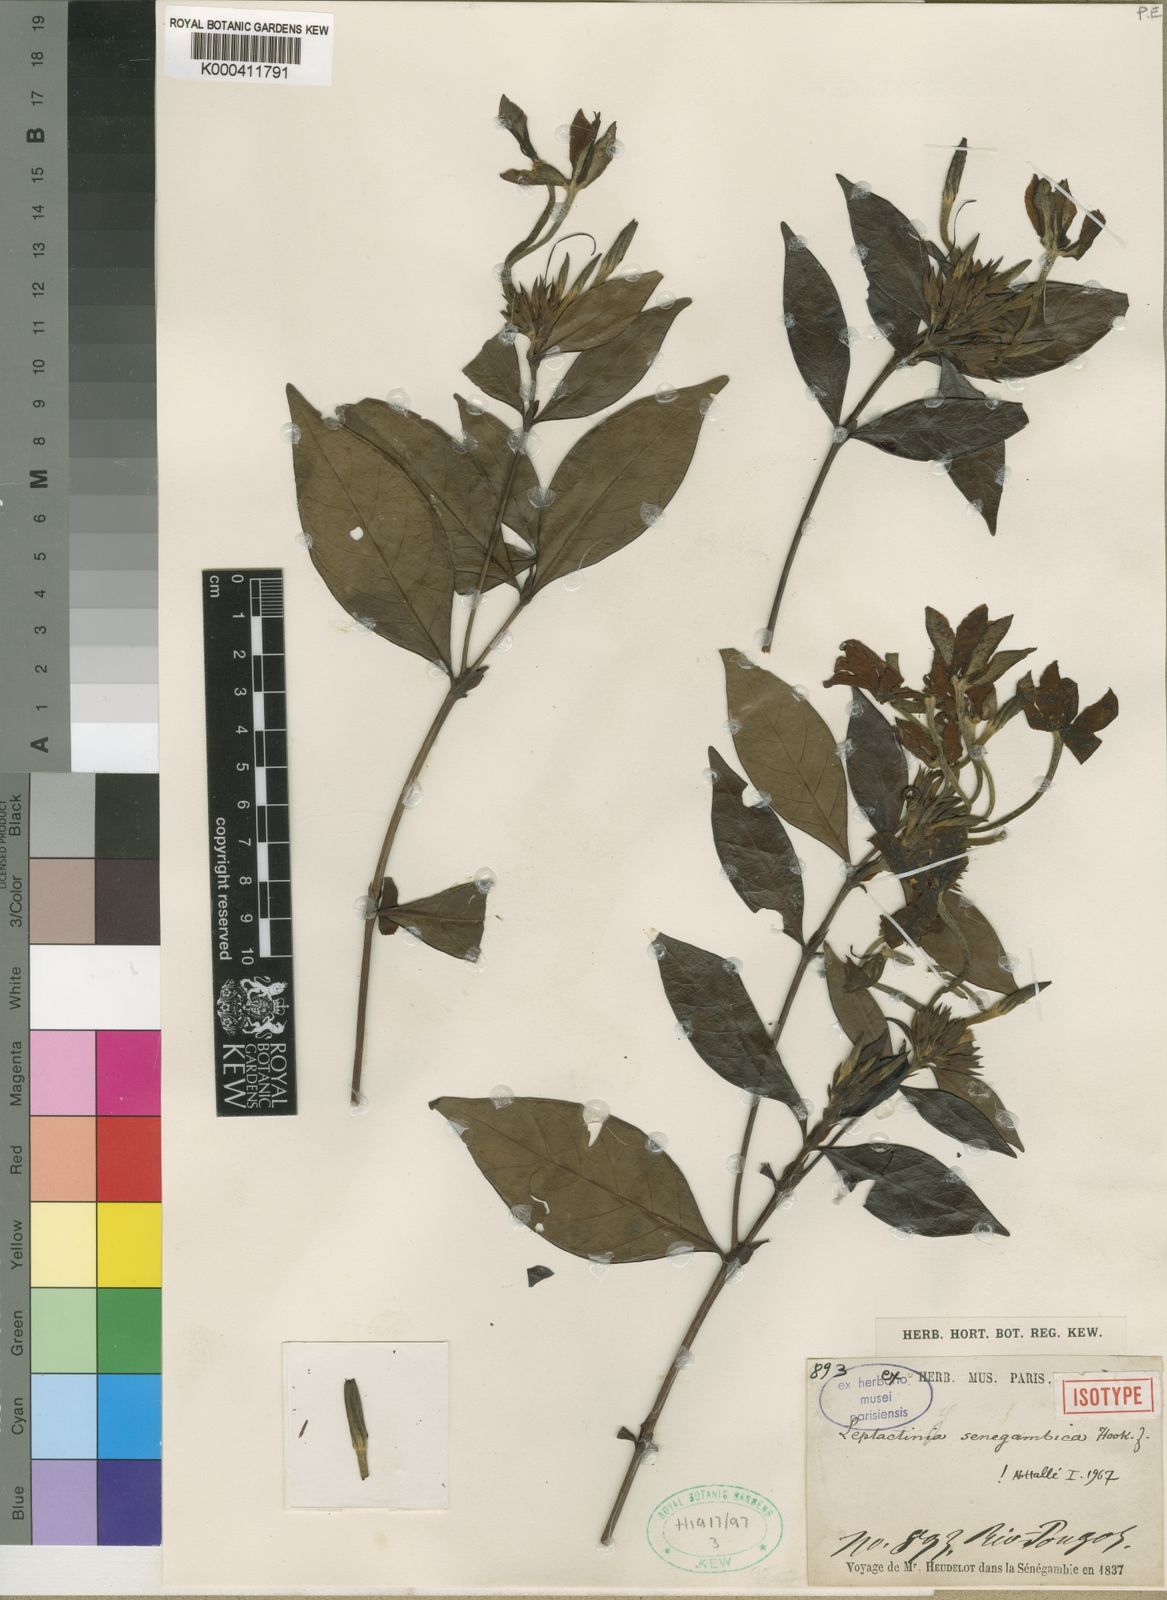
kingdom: Plantae
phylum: Tracheophyta
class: Magnoliopsida
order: Gentianales
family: Rubiaceae
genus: Leptactina
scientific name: Leptactina senegambica
